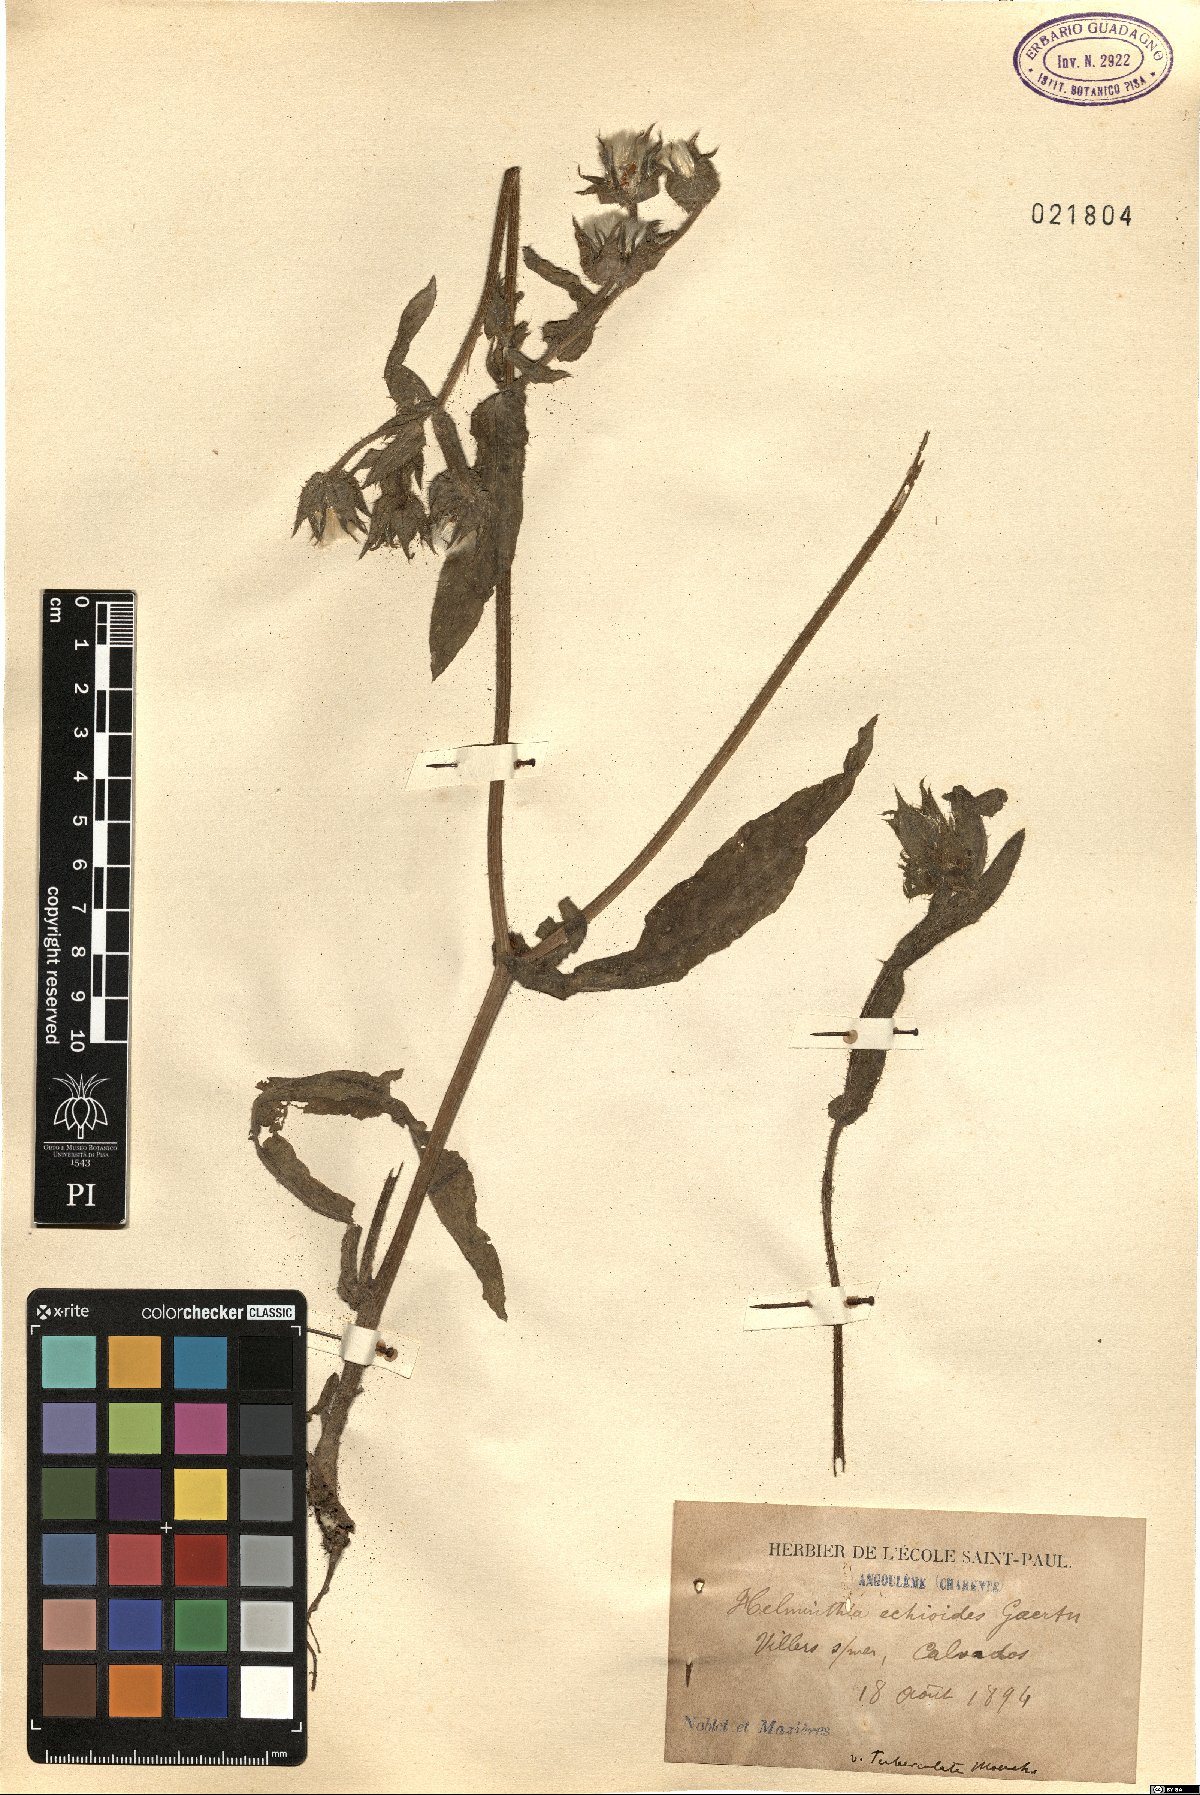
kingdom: Plantae
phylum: Tracheophyta
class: Magnoliopsida
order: Asterales
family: Asteraceae
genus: Helminthotheca
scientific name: Helminthotheca echioides
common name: Ox-tongue
